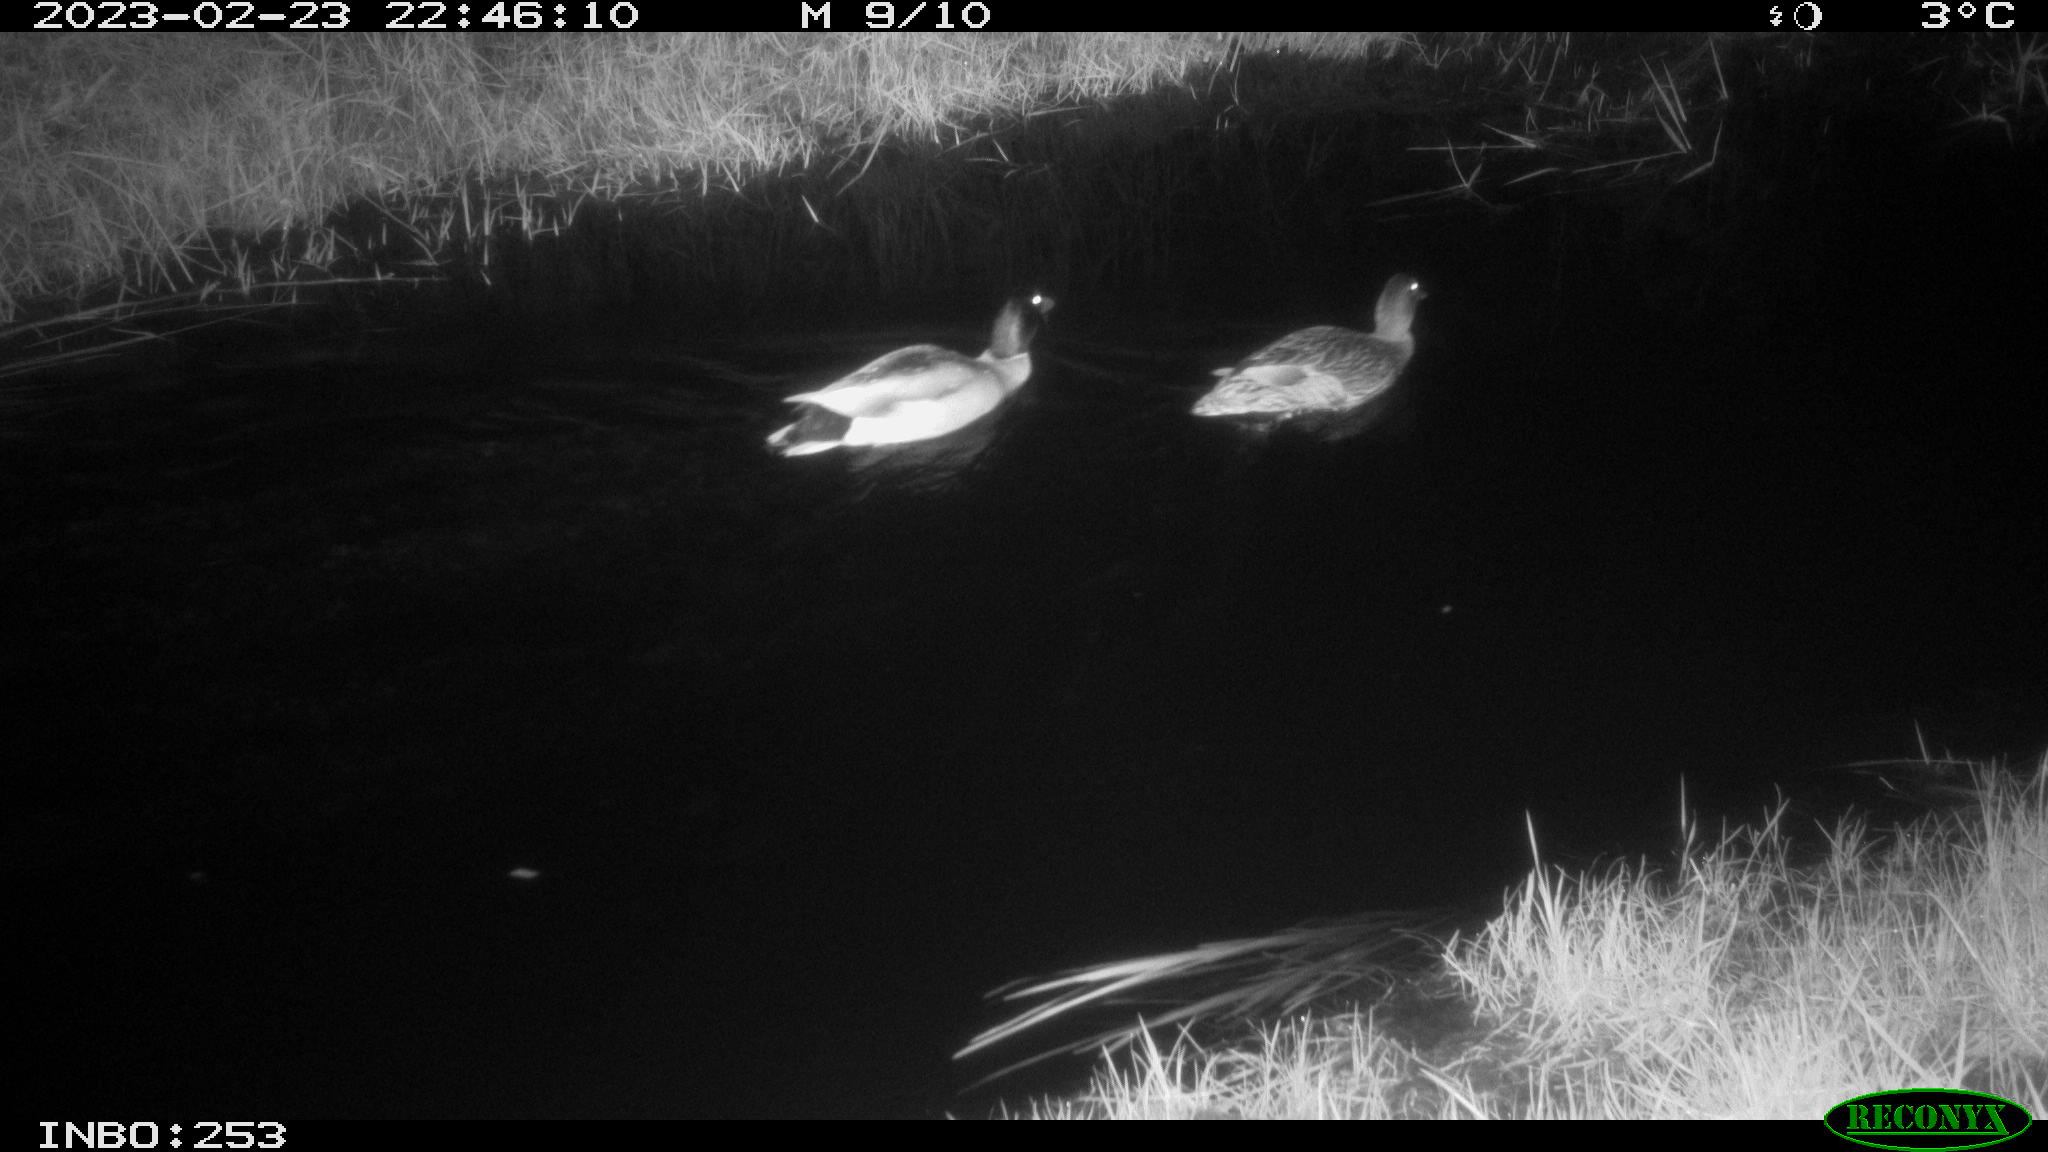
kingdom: Animalia
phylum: Chordata
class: Aves
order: Anseriformes
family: Anatidae
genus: Anas
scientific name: Anas
